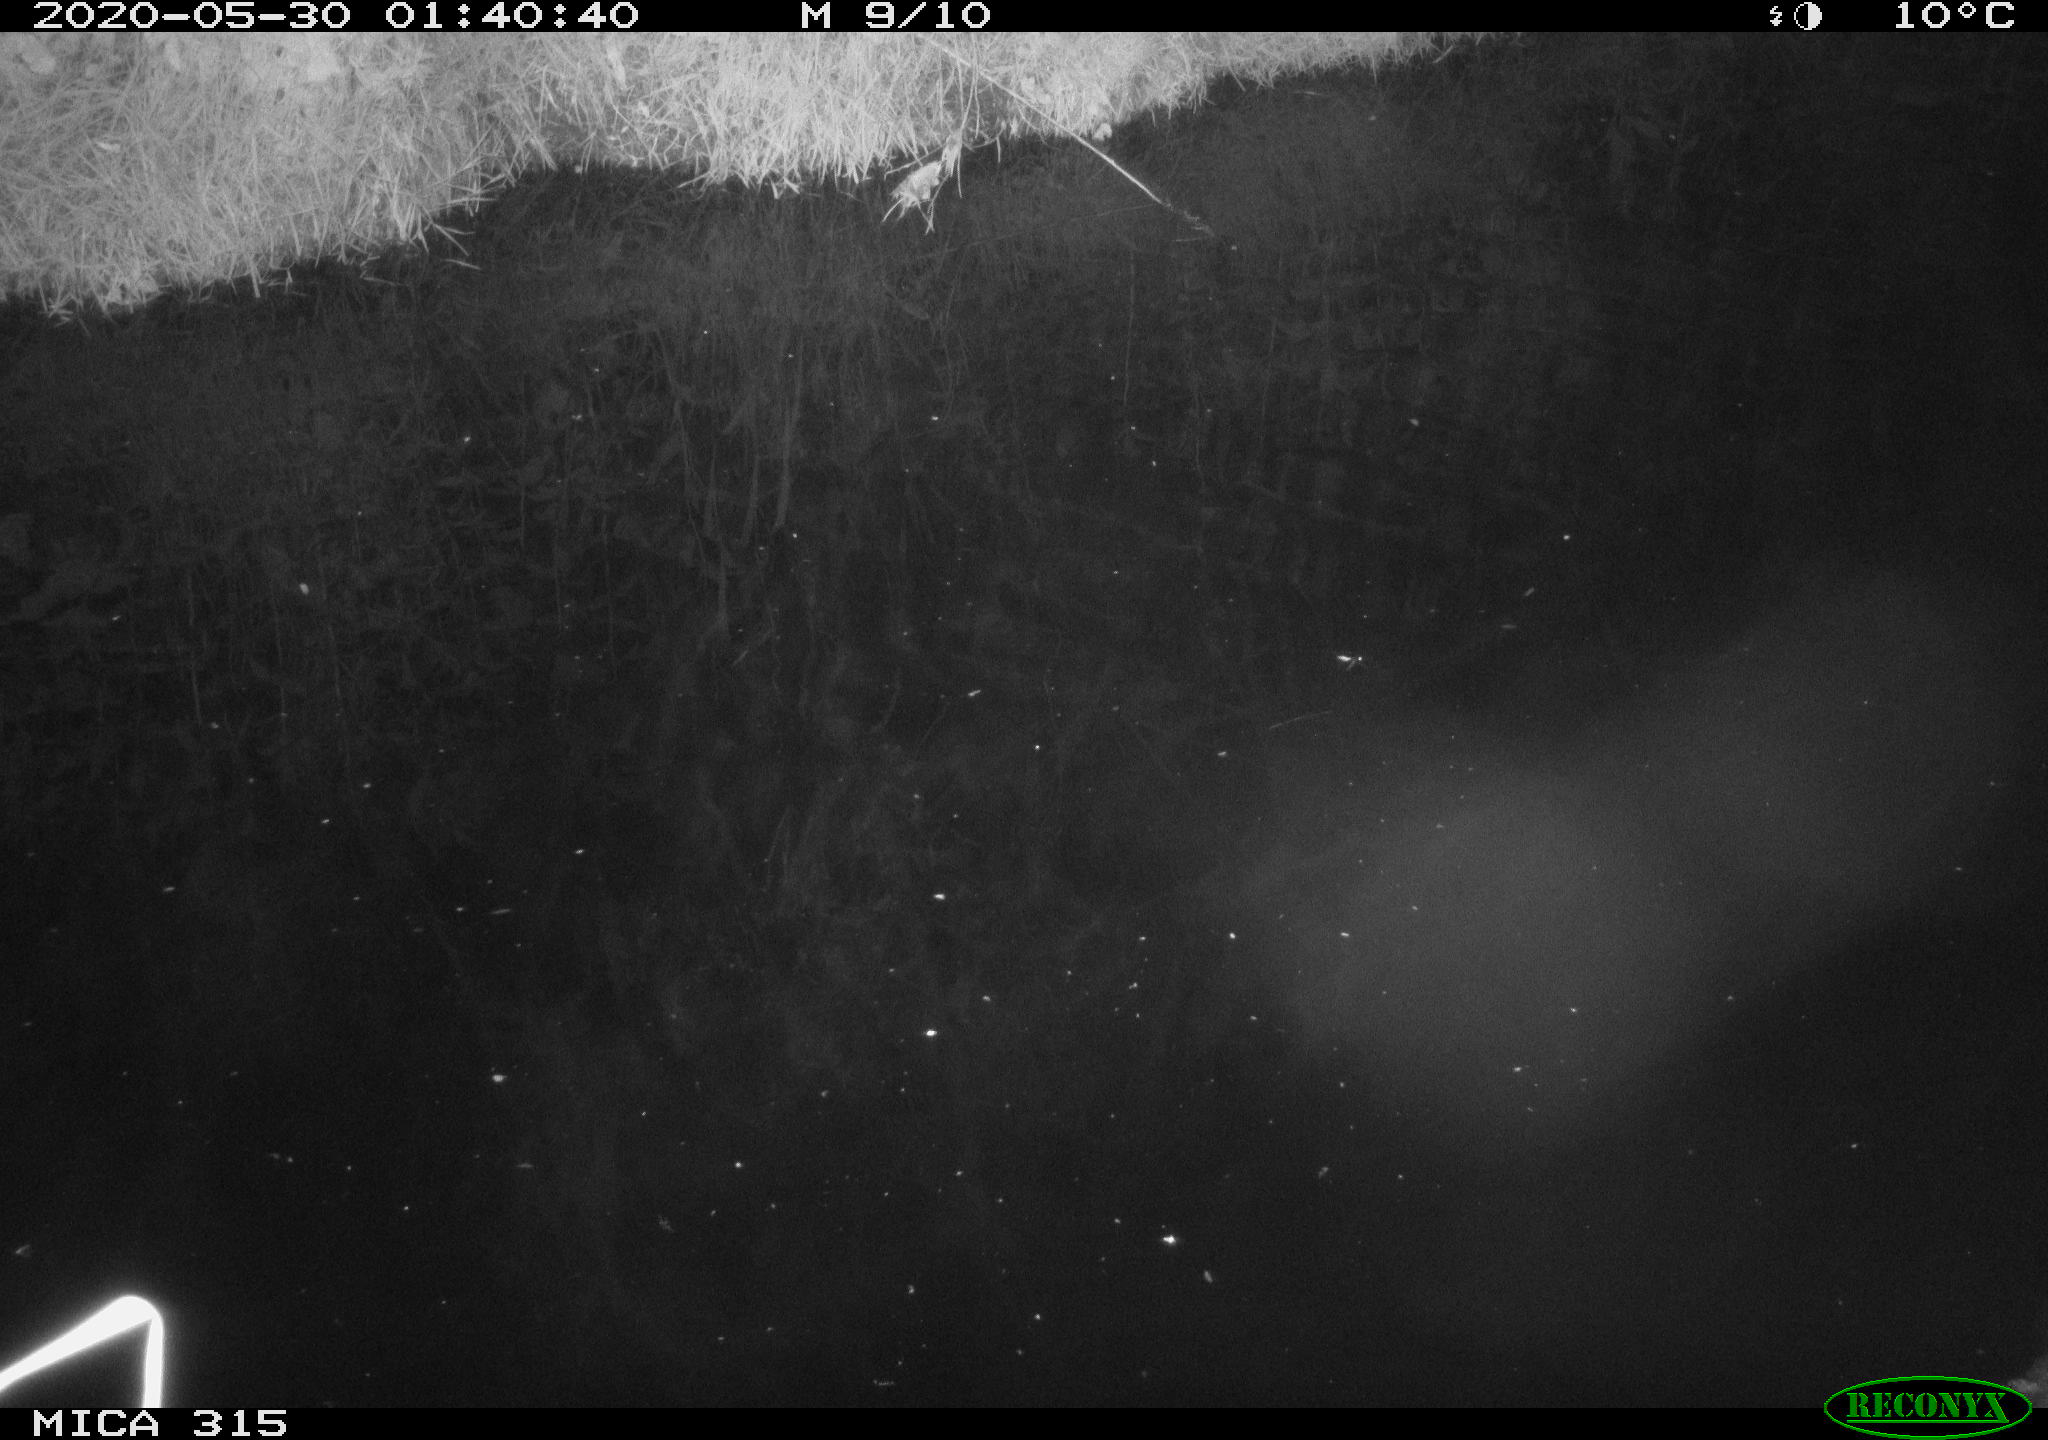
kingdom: Animalia
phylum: Chordata
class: Aves
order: Anseriformes
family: Anatidae
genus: Anas
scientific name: Anas platyrhynchos
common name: Mallard
